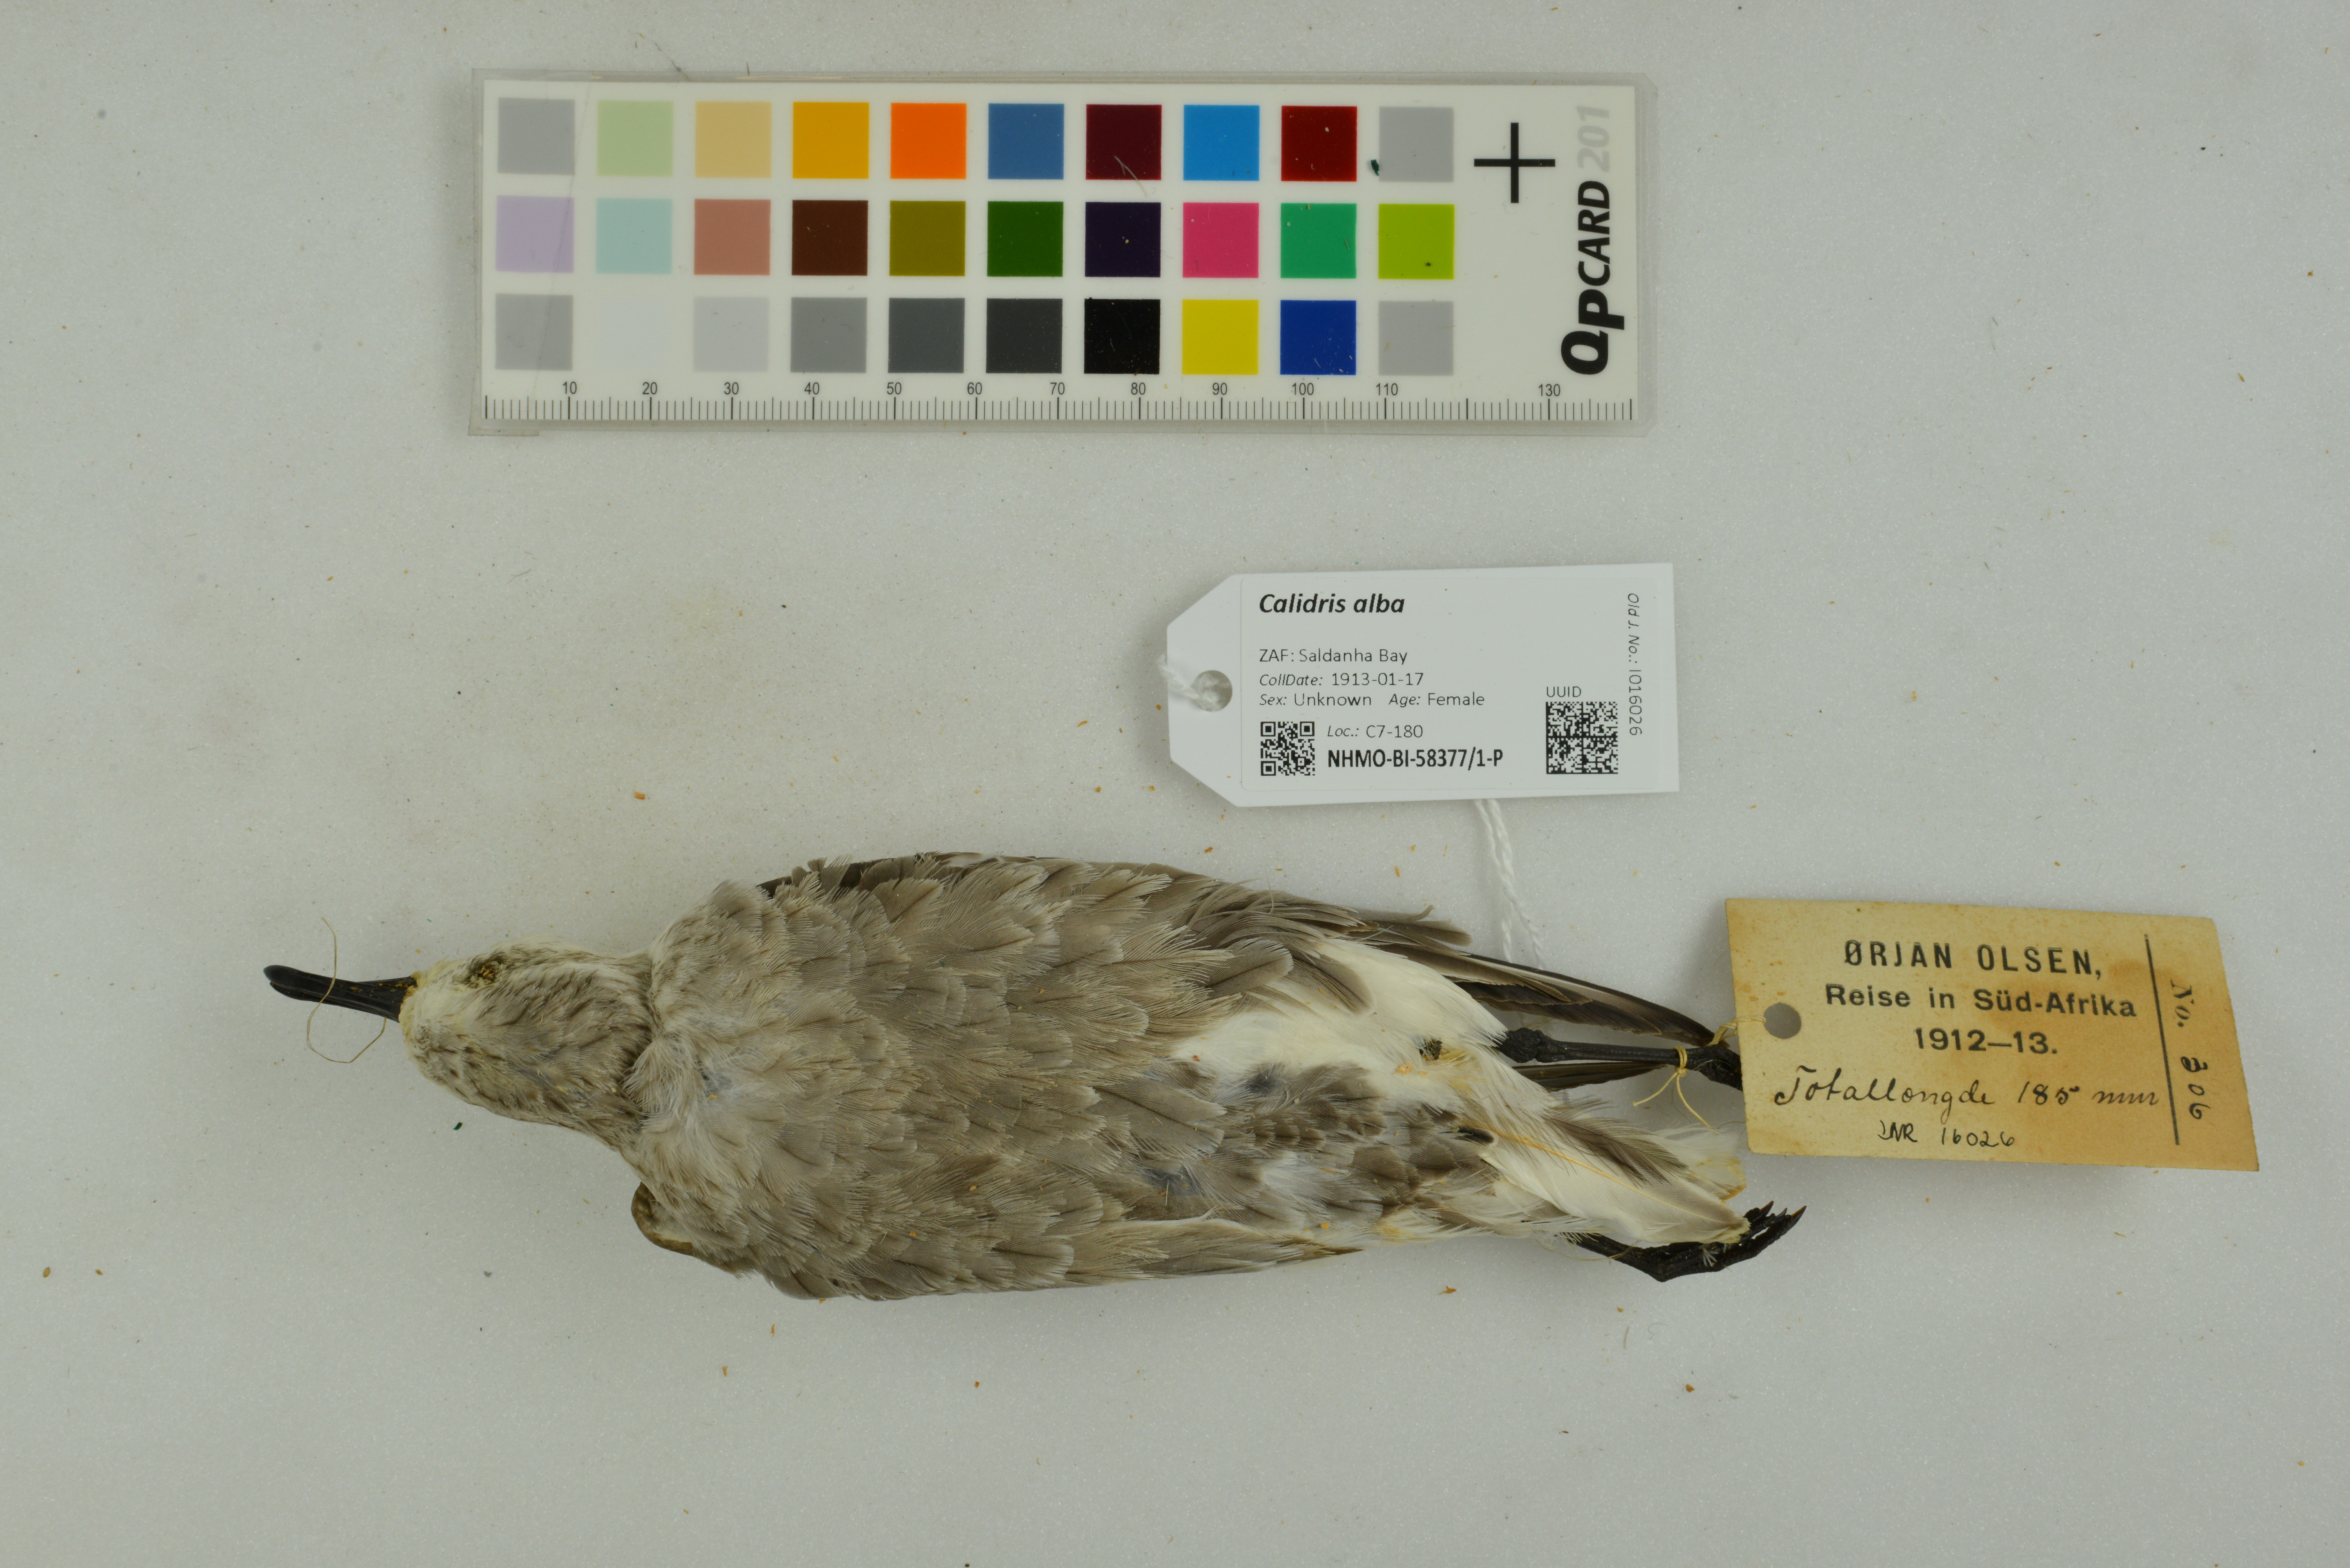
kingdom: Animalia
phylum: Chordata
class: Aves
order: Charadriiformes
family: Scolopacidae
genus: Calidris
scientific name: Calidris alba
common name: Sanderling
